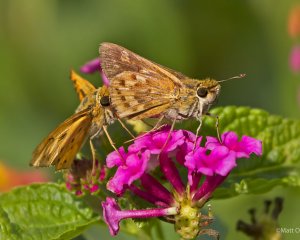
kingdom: Animalia
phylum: Arthropoda
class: Insecta
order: Lepidoptera
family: Hesperiidae
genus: Hylephila
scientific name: Hylephila phyleus
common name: Fiery Skipper
